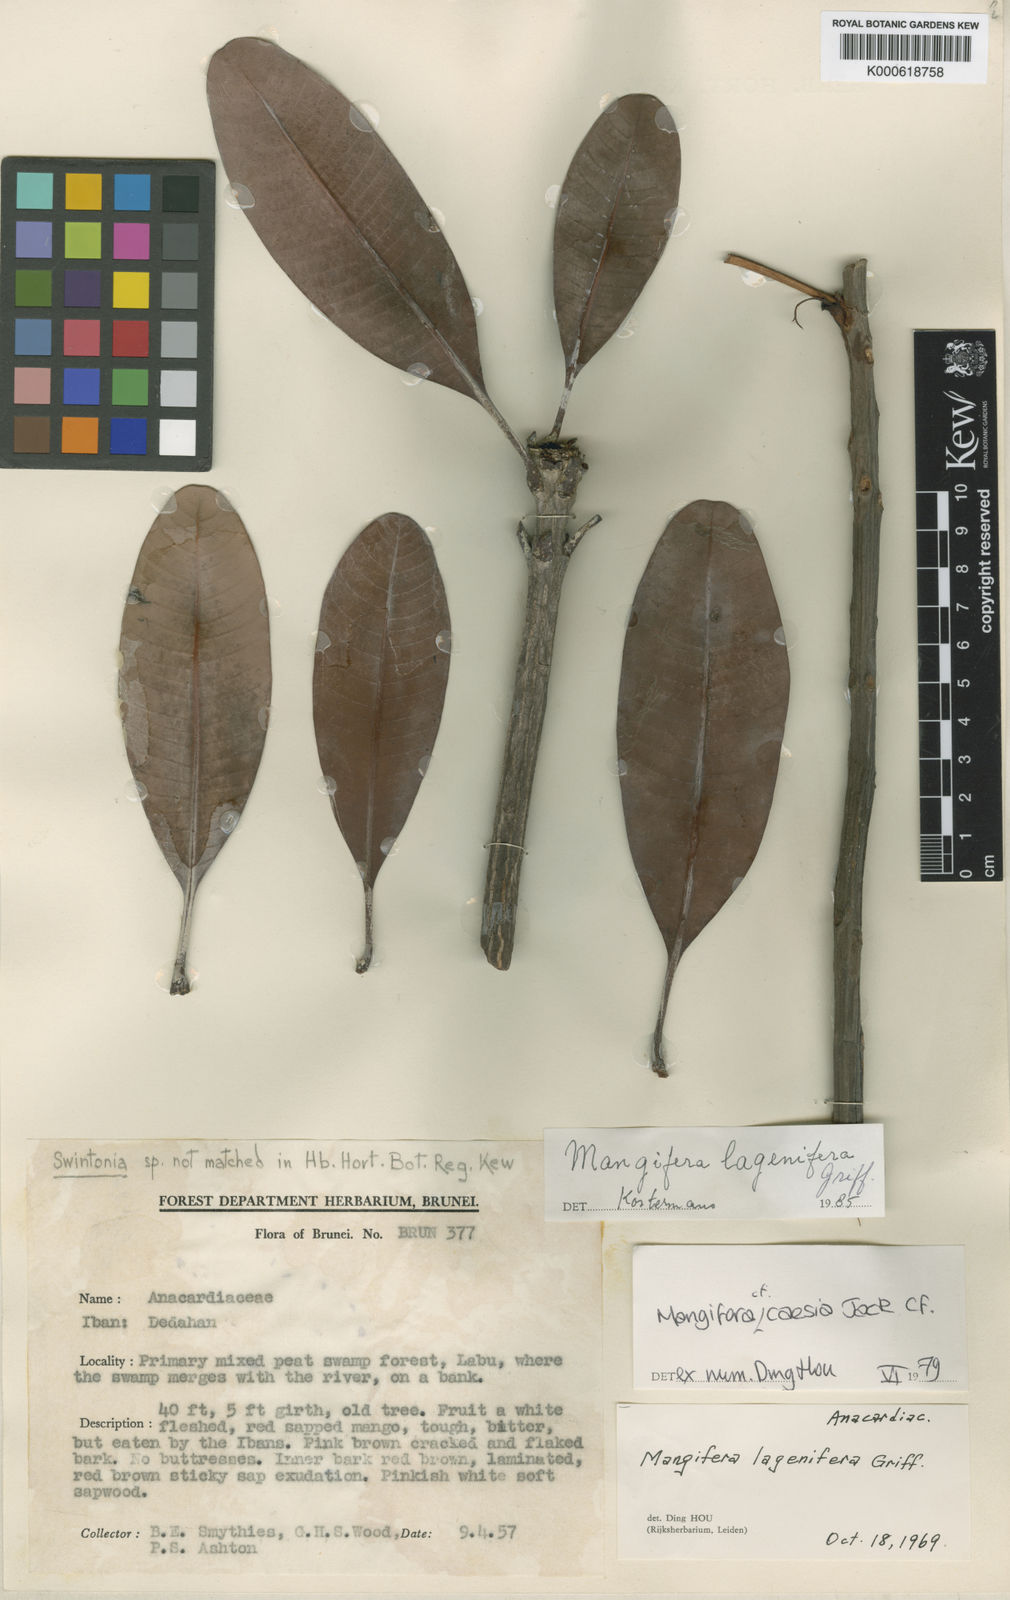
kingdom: Plantae
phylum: Tracheophyta
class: Magnoliopsida
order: Sapindales
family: Anacardiaceae
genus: Mangifera
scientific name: Mangifera lagenifera
